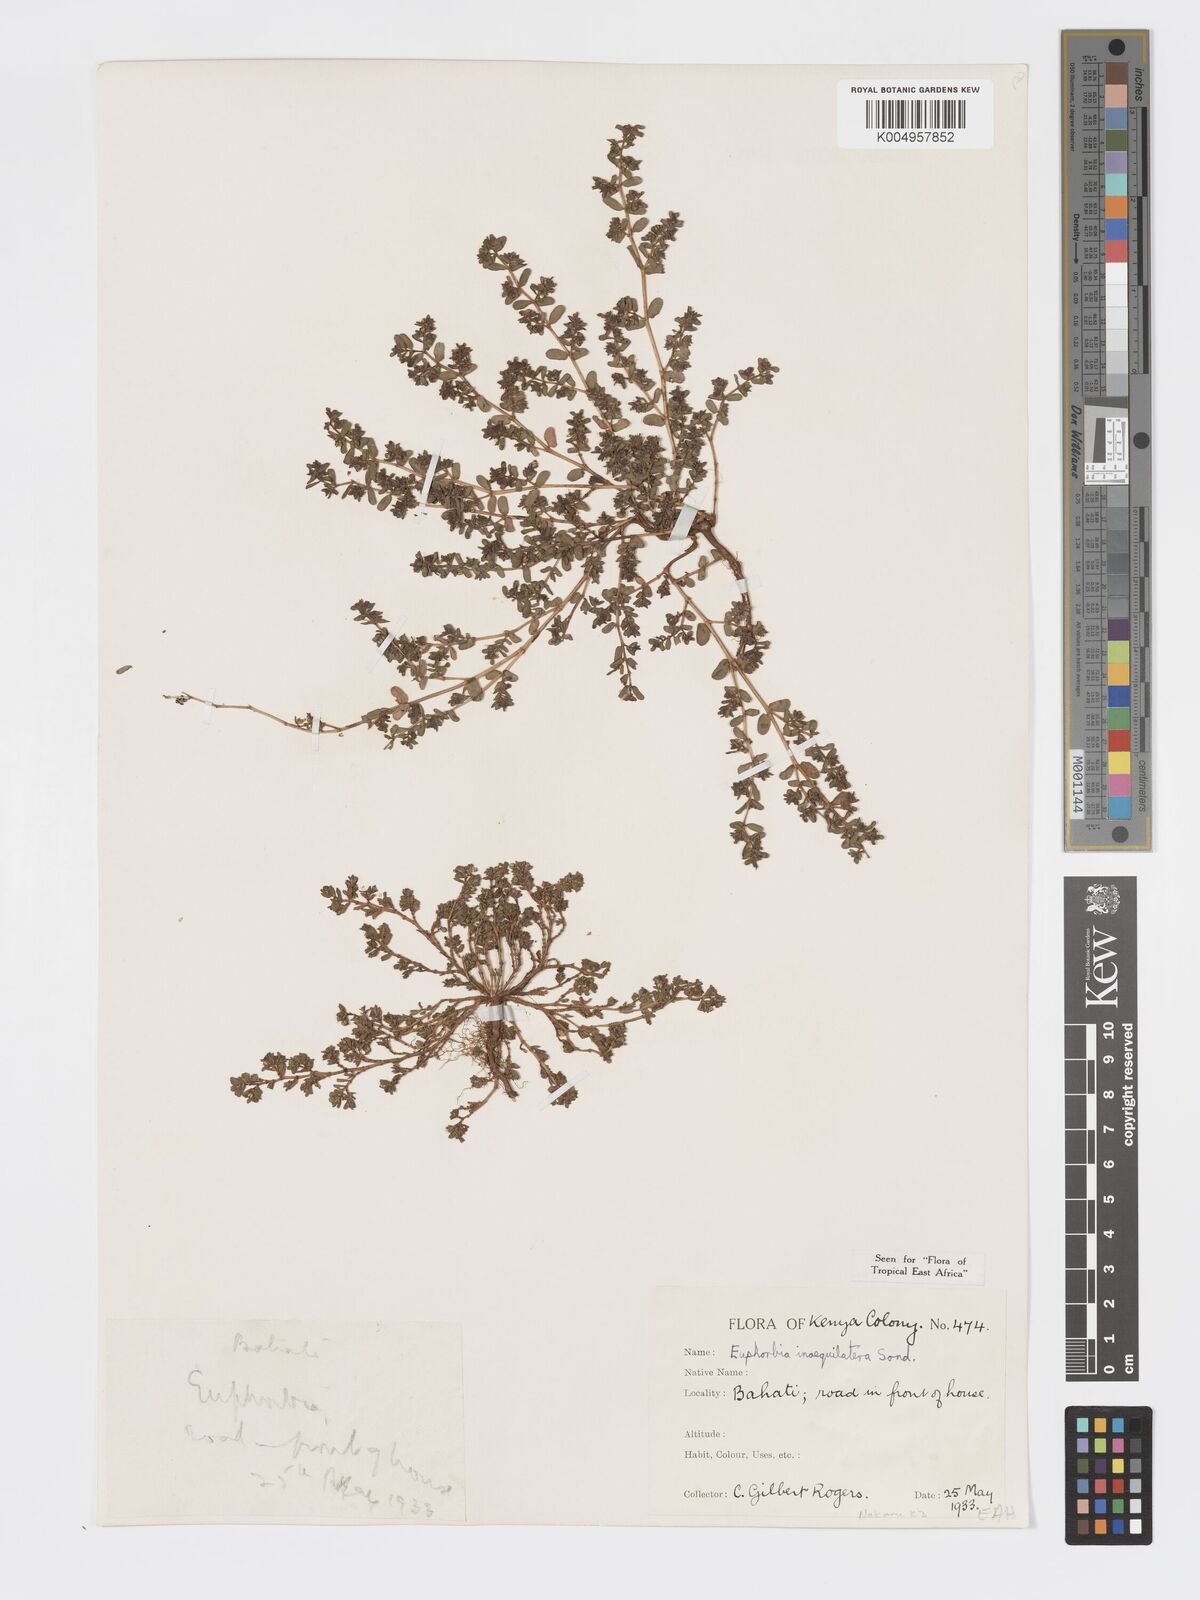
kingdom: Plantae
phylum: Tracheophyta
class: Magnoliopsida
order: Malpighiales
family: Euphorbiaceae
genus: Euphorbia
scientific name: Euphorbia inaequilatera
